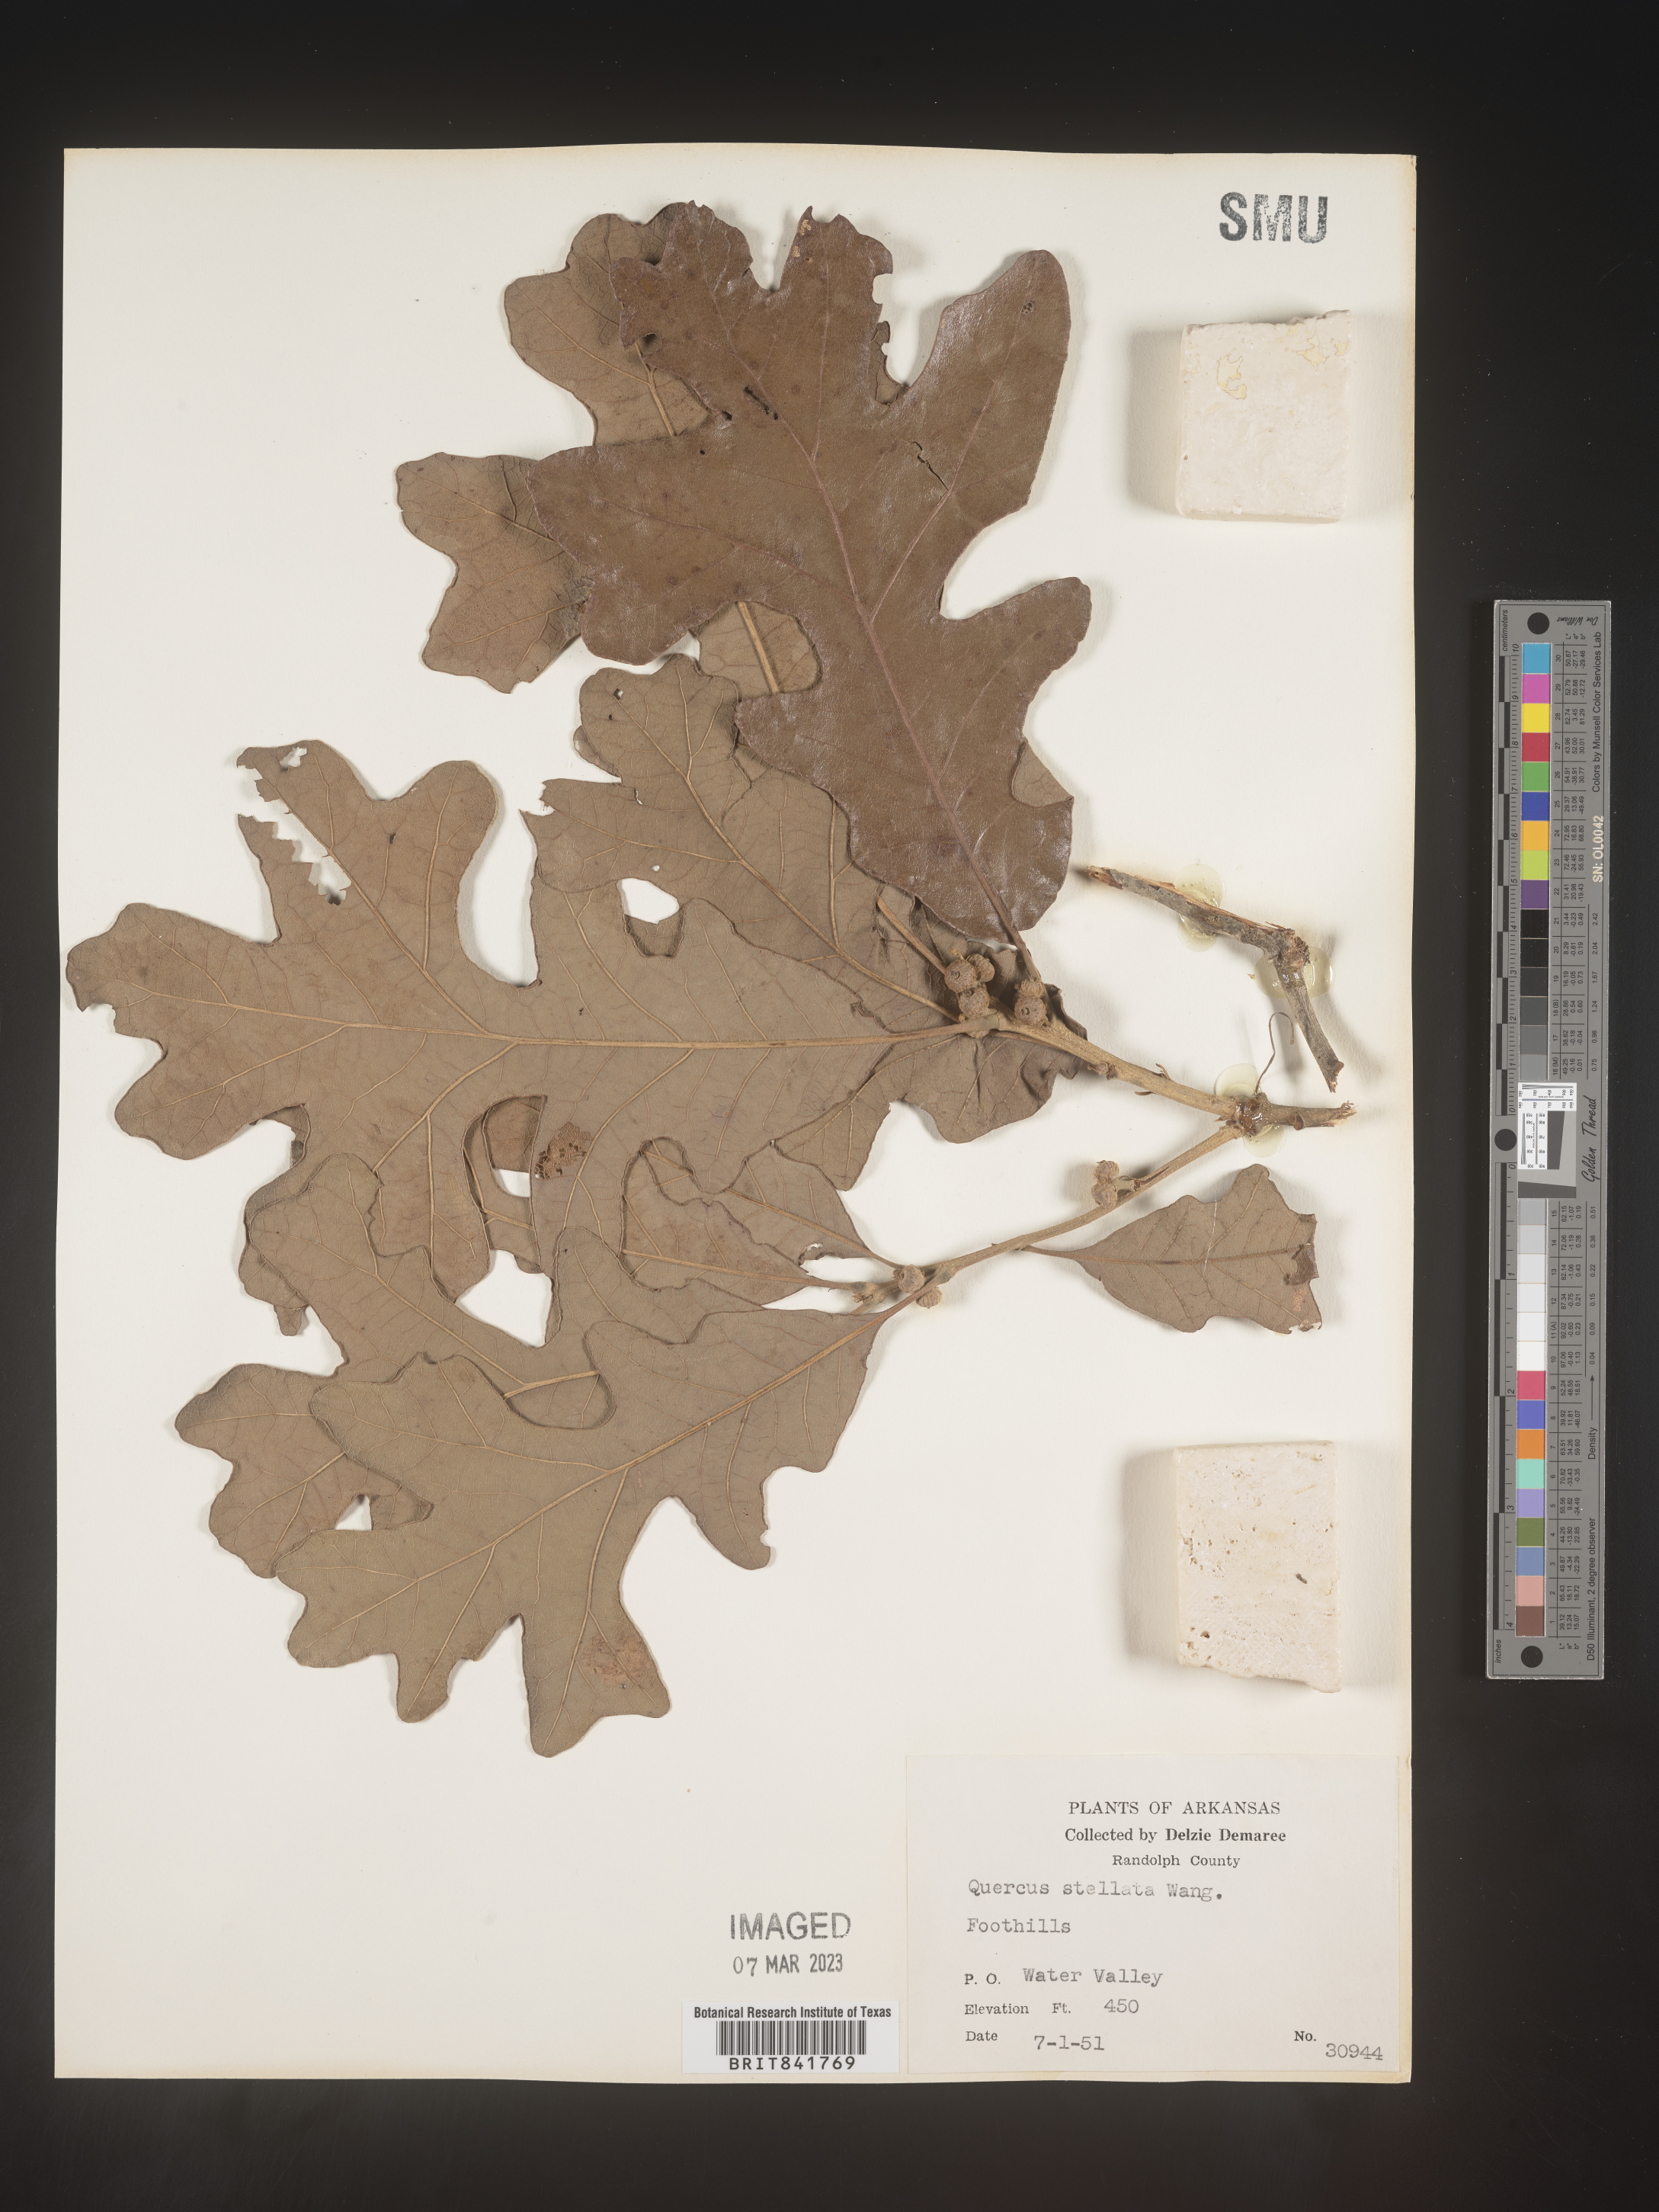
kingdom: Plantae
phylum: Tracheophyta
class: Magnoliopsida
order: Fagales
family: Fagaceae
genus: Quercus
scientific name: Quercus stellata
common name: Post oak
